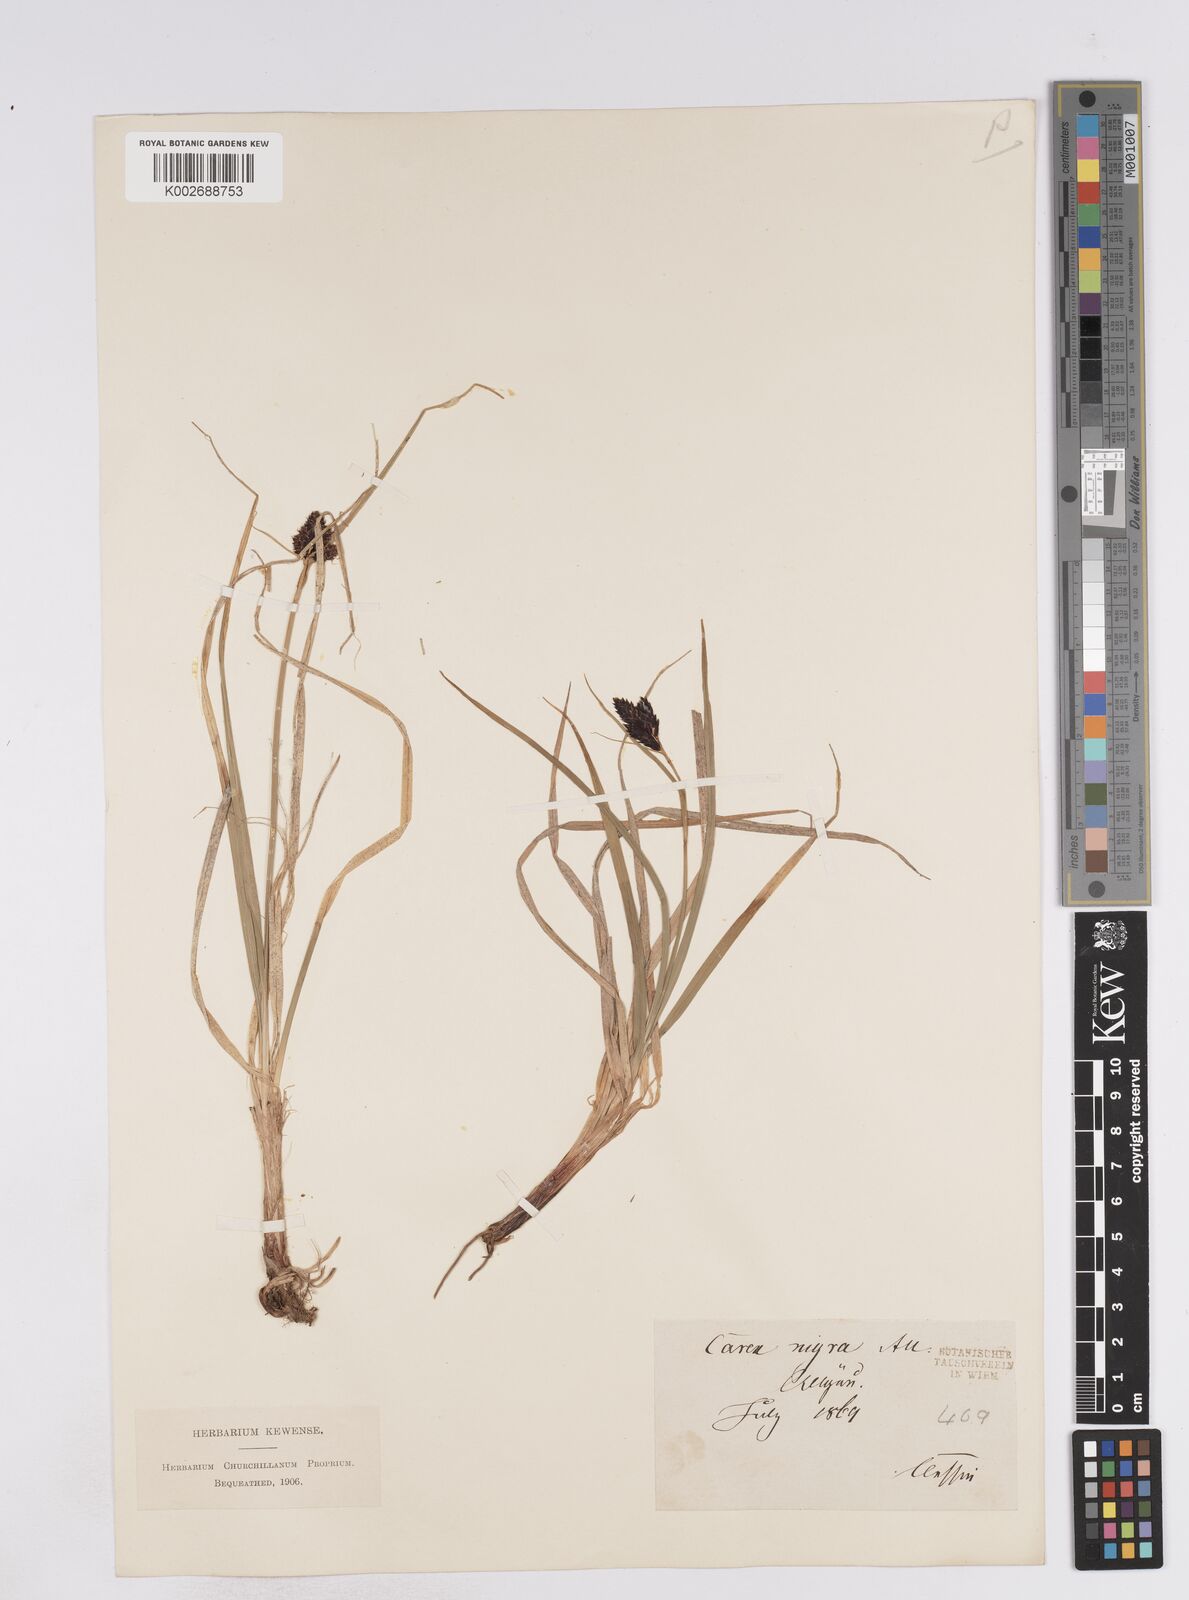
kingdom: Plantae
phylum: Tracheophyta
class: Liliopsida
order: Poales
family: Cyperaceae
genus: Carex
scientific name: Carex parviflora
